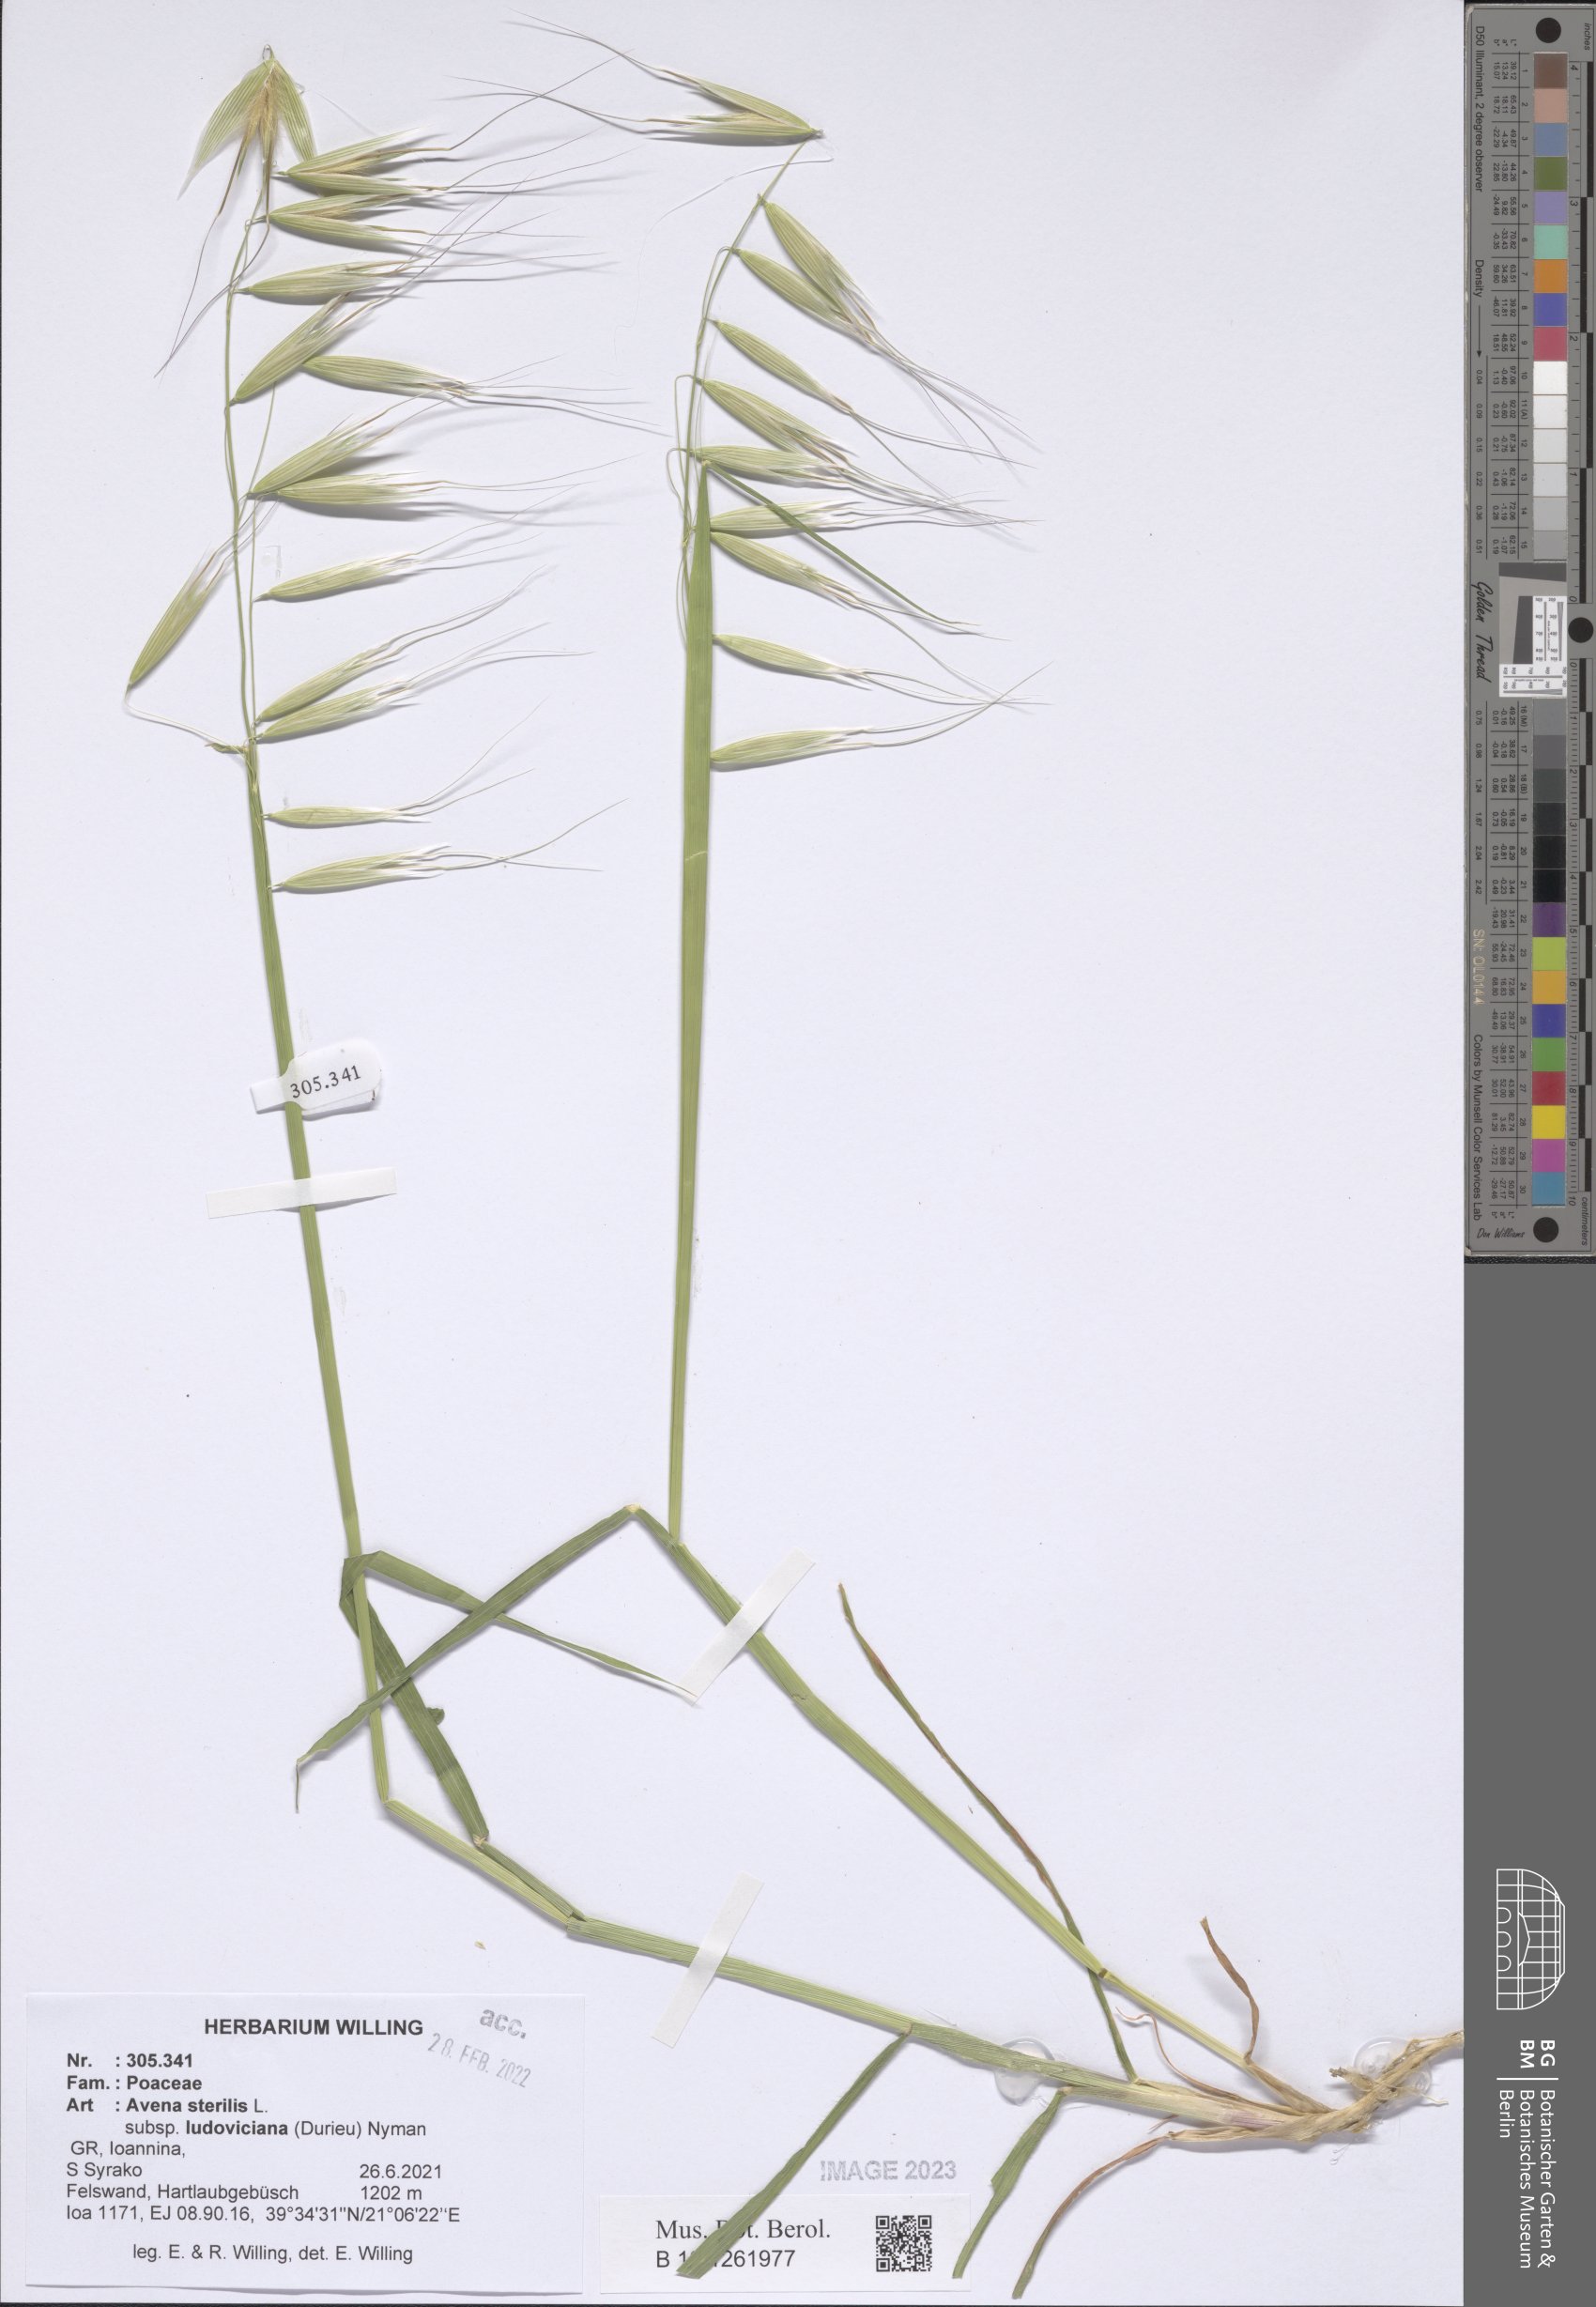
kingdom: Plantae
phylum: Tracheophyta
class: Liliopsida
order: Poales
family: Poaceae
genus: Avena
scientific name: Avena sterilis
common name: Animated oat
